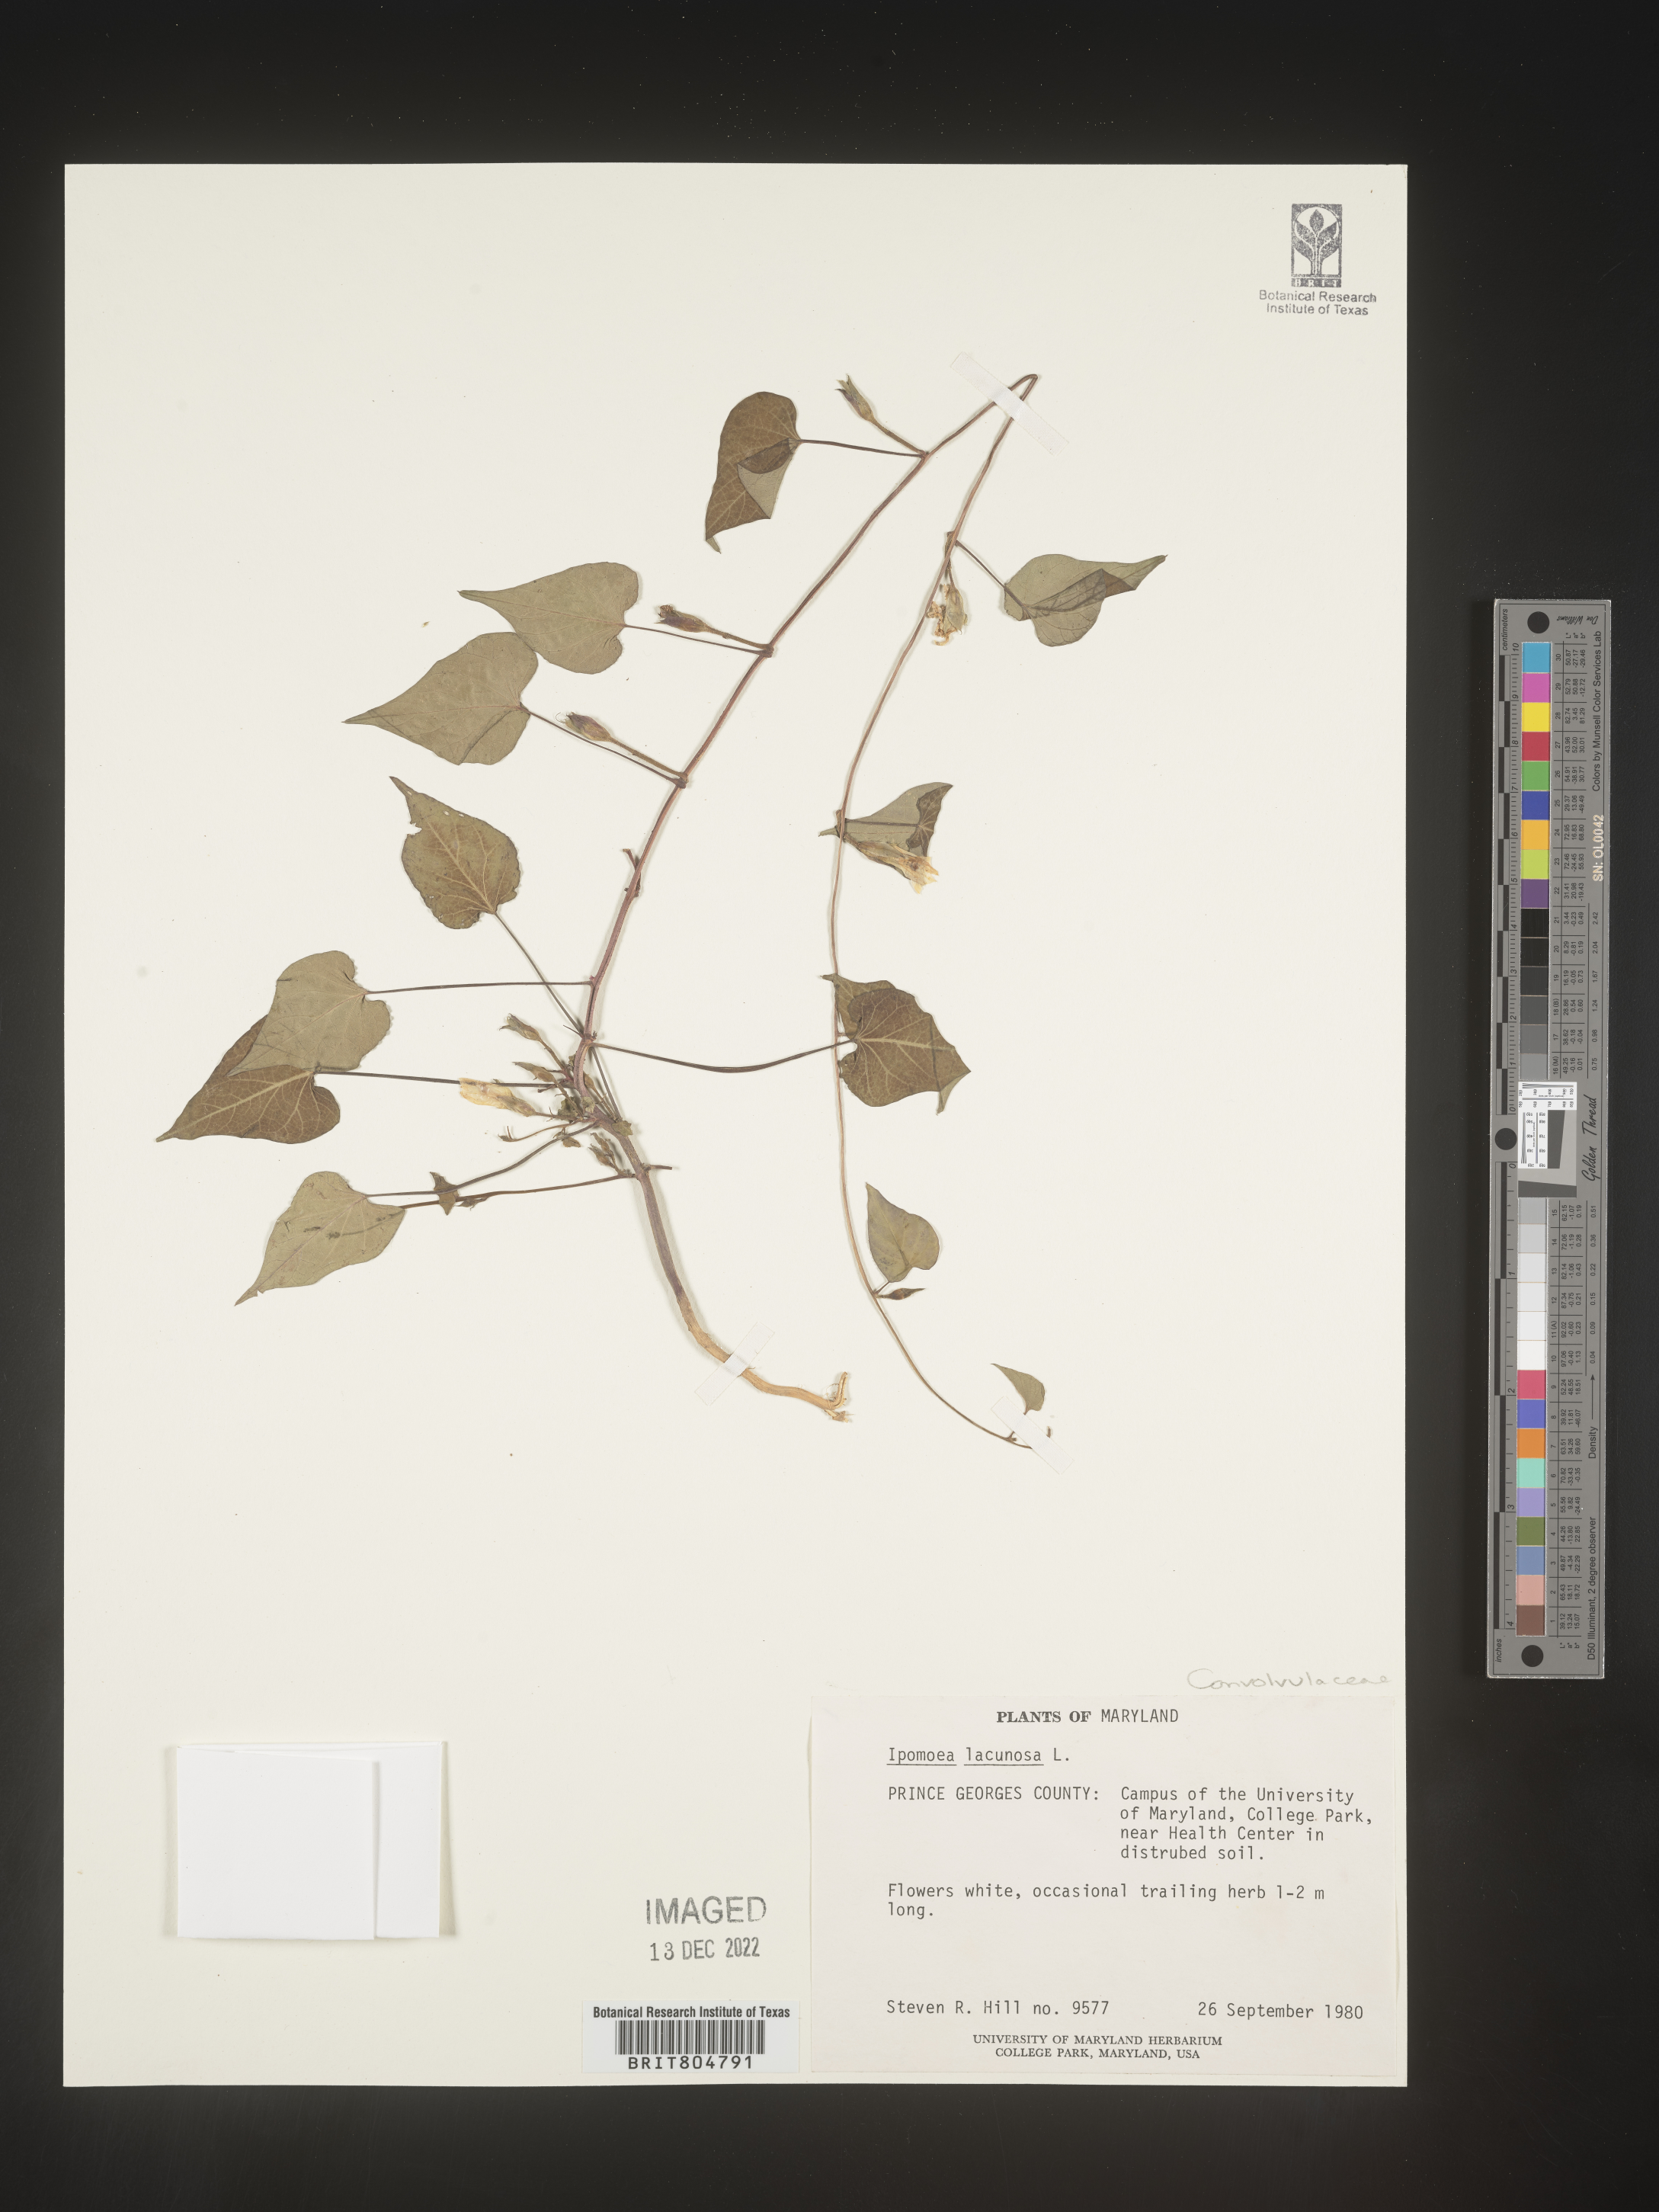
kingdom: Plantae
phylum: Tracheophyta
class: Magnoliopsida
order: Solanales
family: Convolvulaceae
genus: Ipomoea
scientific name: Ipomoea lacunosa
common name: White morning-glory
